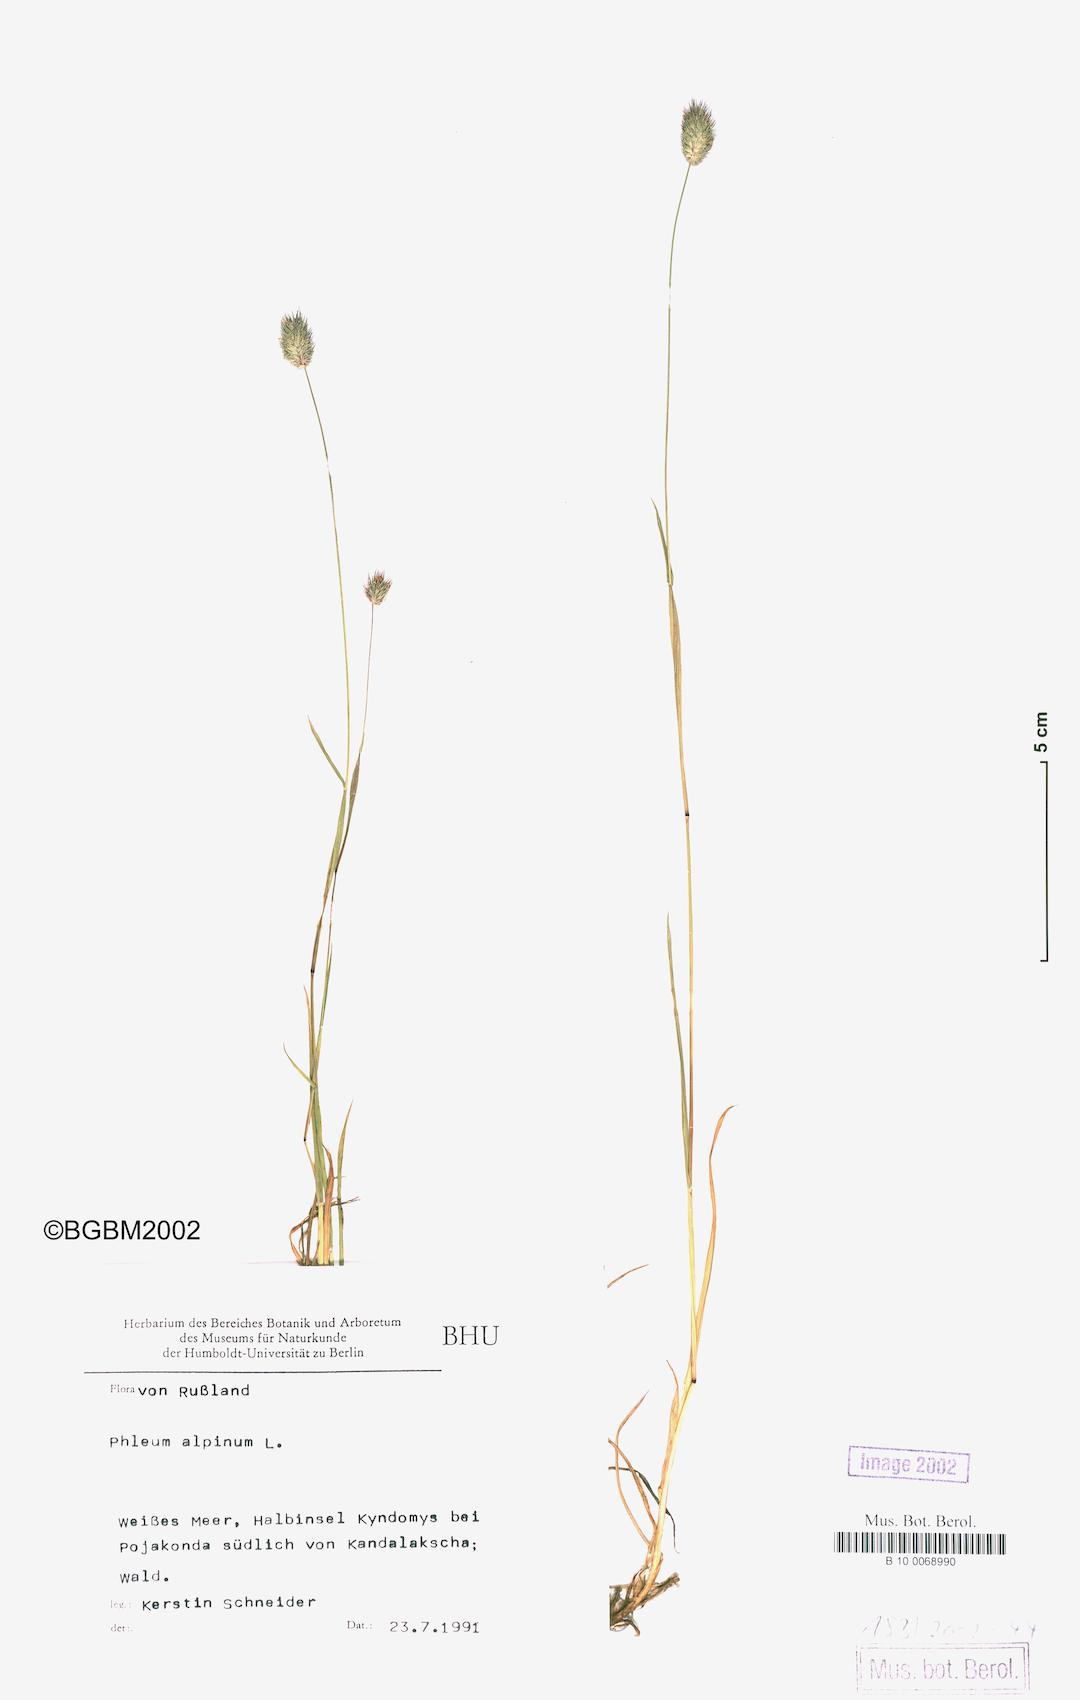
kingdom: Plantae
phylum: Tracheophyta
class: Liliopsida
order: Poales
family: Poaceae
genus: Phleum
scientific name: Phleum alpinum
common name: Alpine cat's-tail
